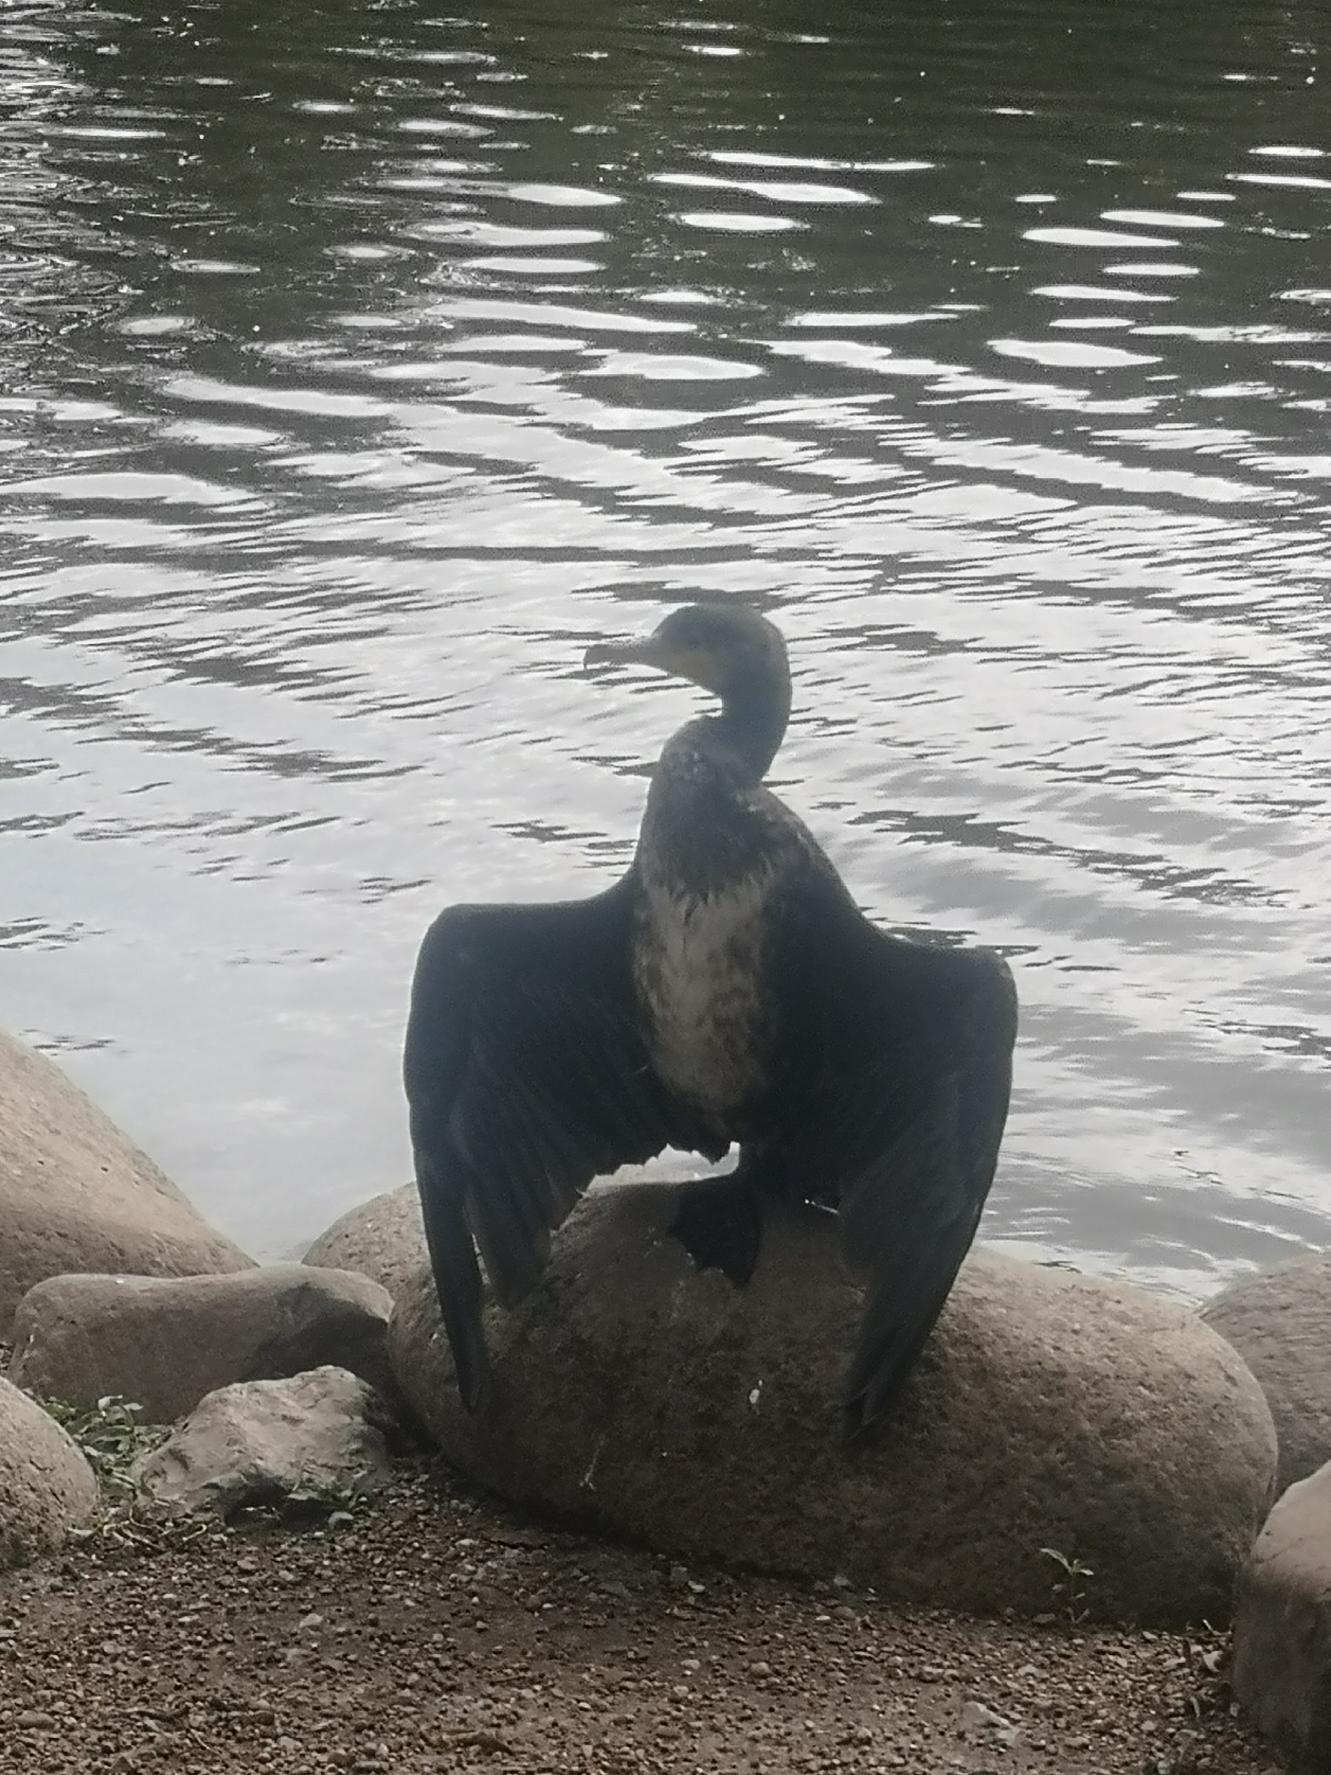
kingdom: Animalia
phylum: Chordata
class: Aves
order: Suliformes
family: Phalacrocoracidae
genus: Phalacrocorax
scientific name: Phalacrocorax carbo
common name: Skarv
